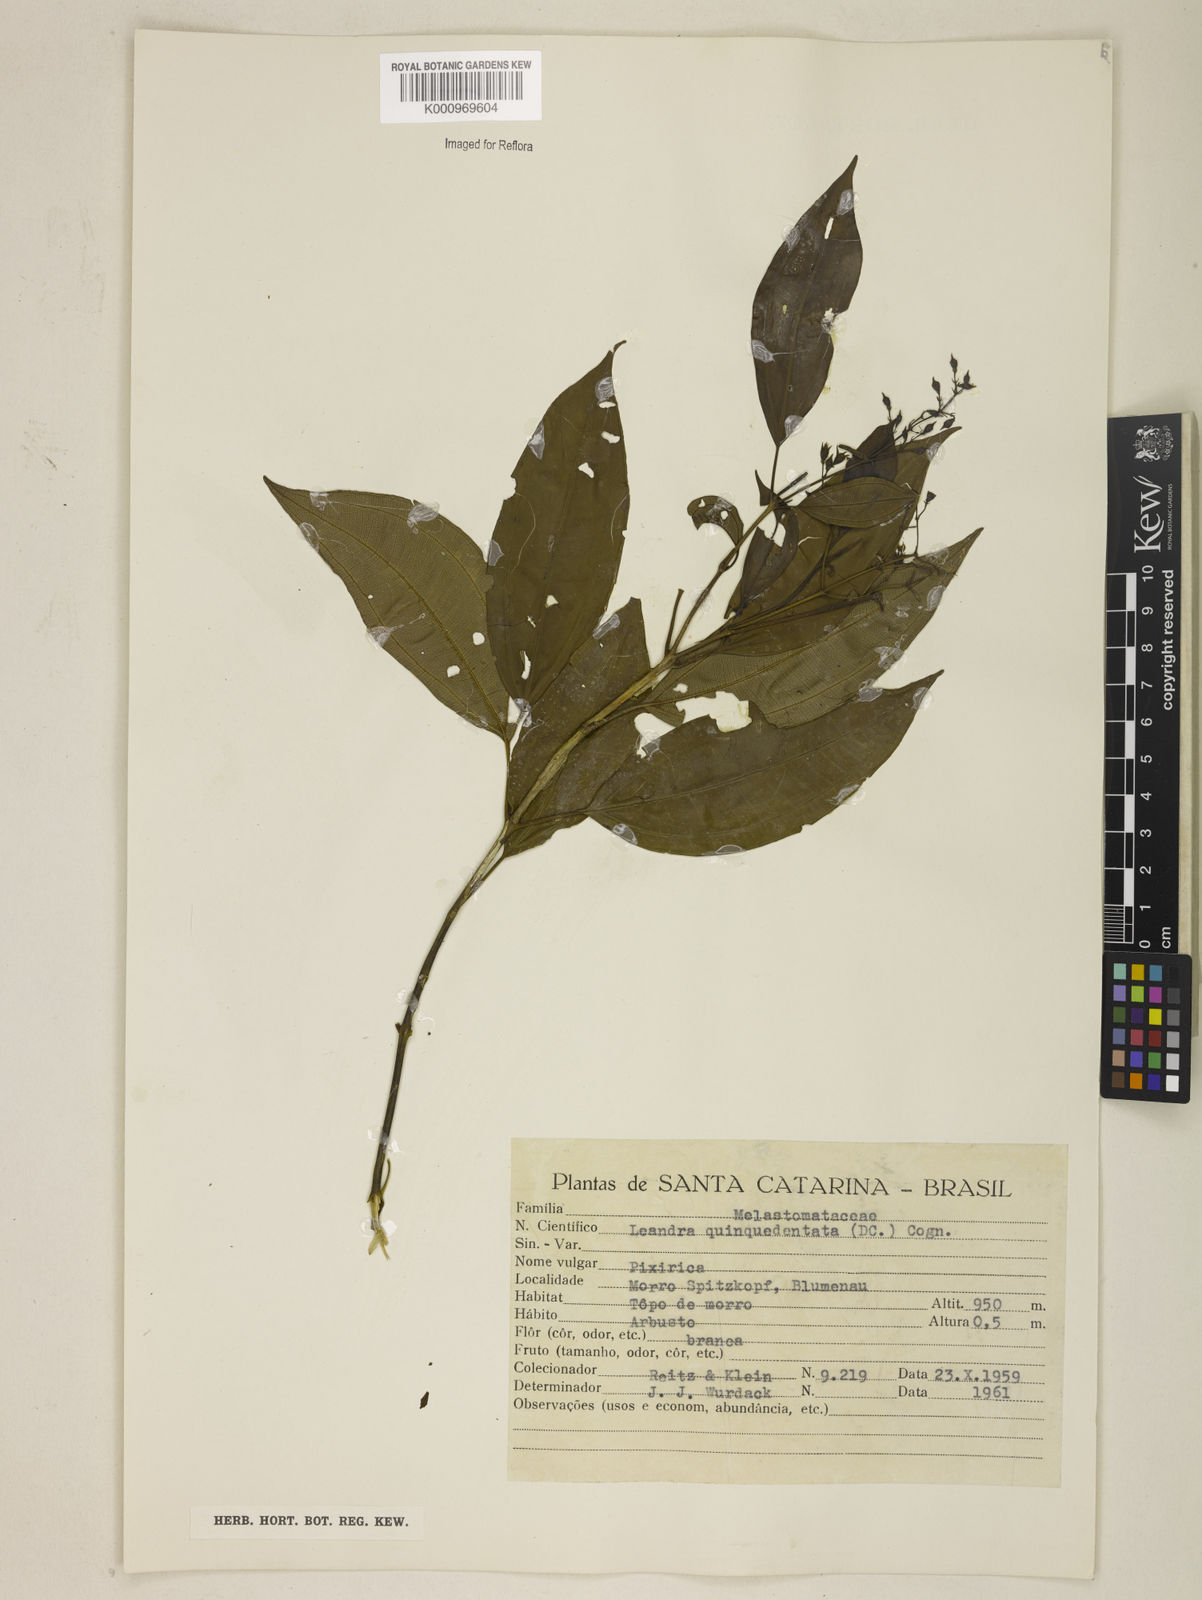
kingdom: Plantae
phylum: Tracheophyta
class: Magnoliopsida
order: Myrtales
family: Melastomataceae
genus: Miconia
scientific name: Miconia quinquedentata
